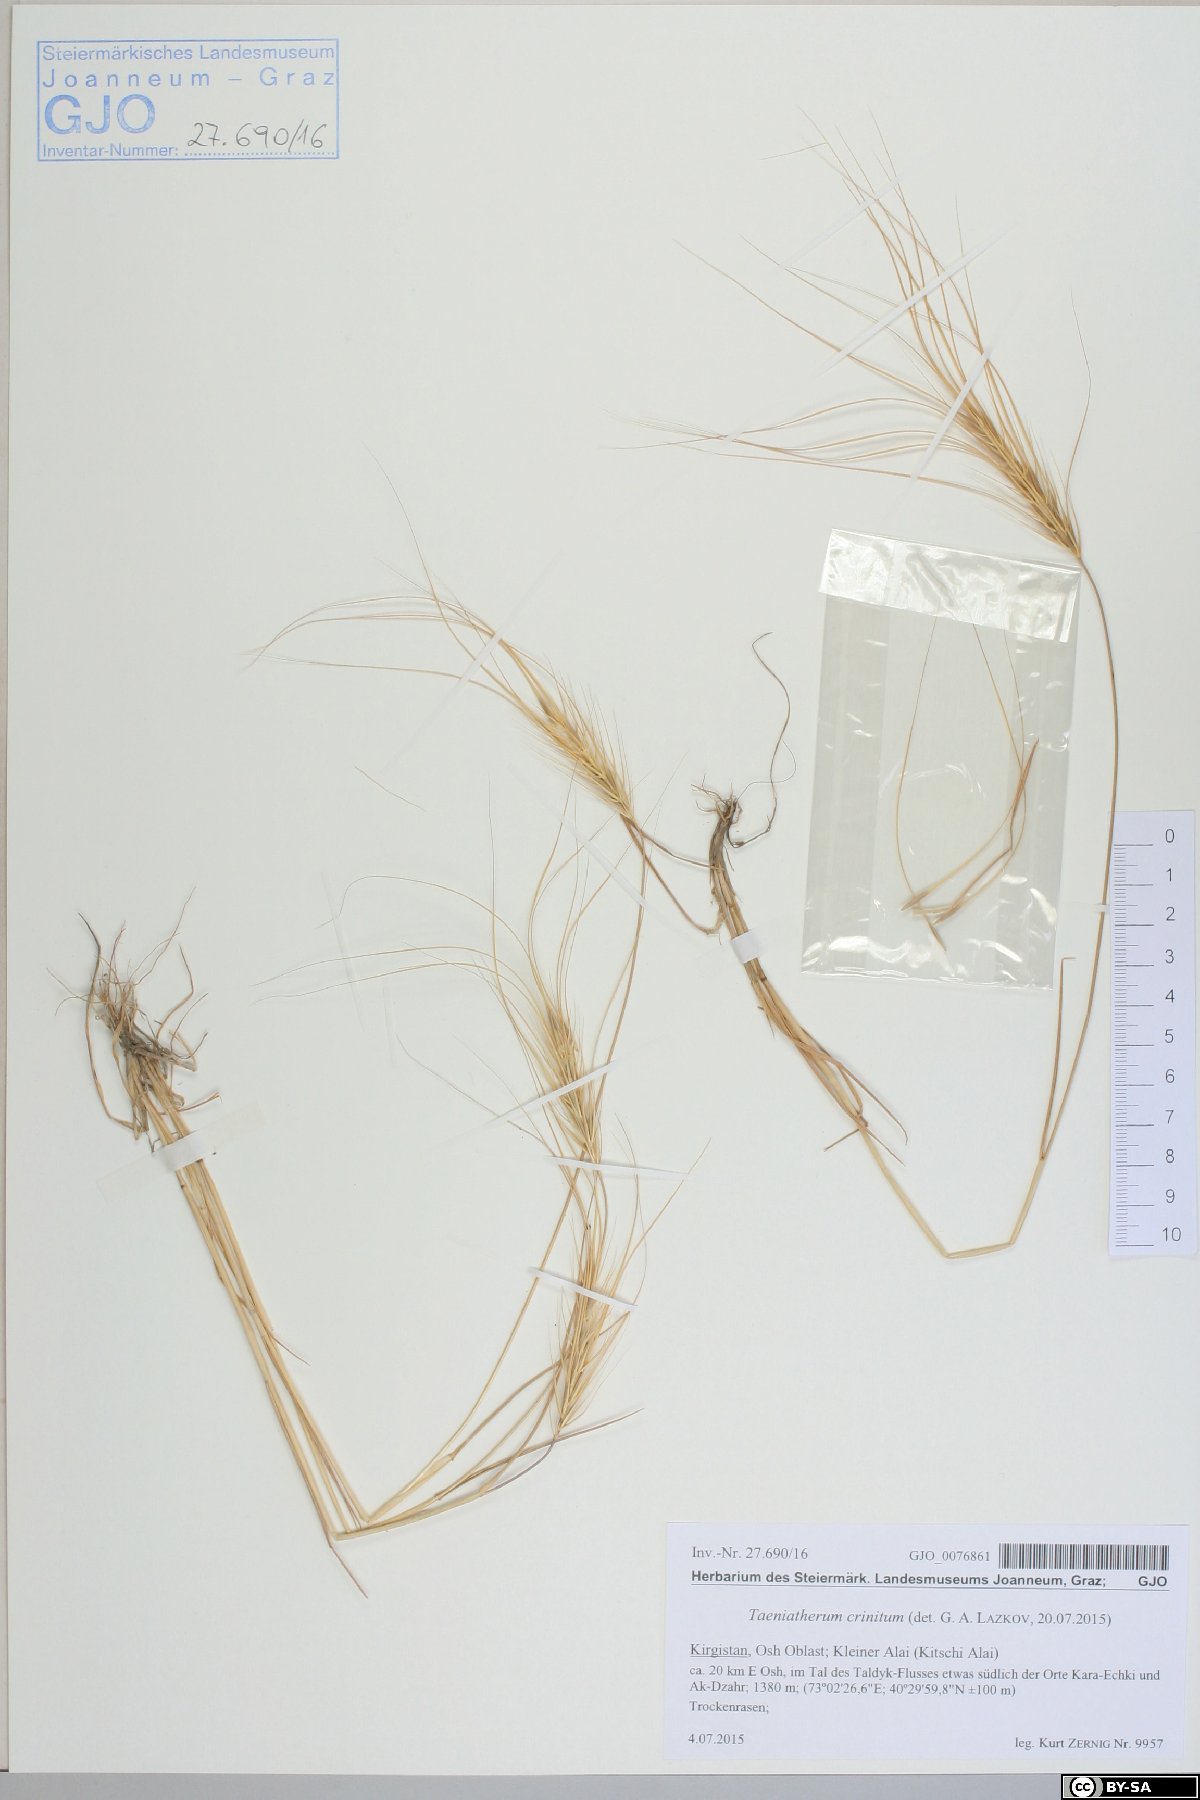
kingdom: Plantae
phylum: Tracheophyta
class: Liliopsida
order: Poales
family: Poaceae
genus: Taeniatherum
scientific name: Taeniatherum caput-medusae
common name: Medusahead
